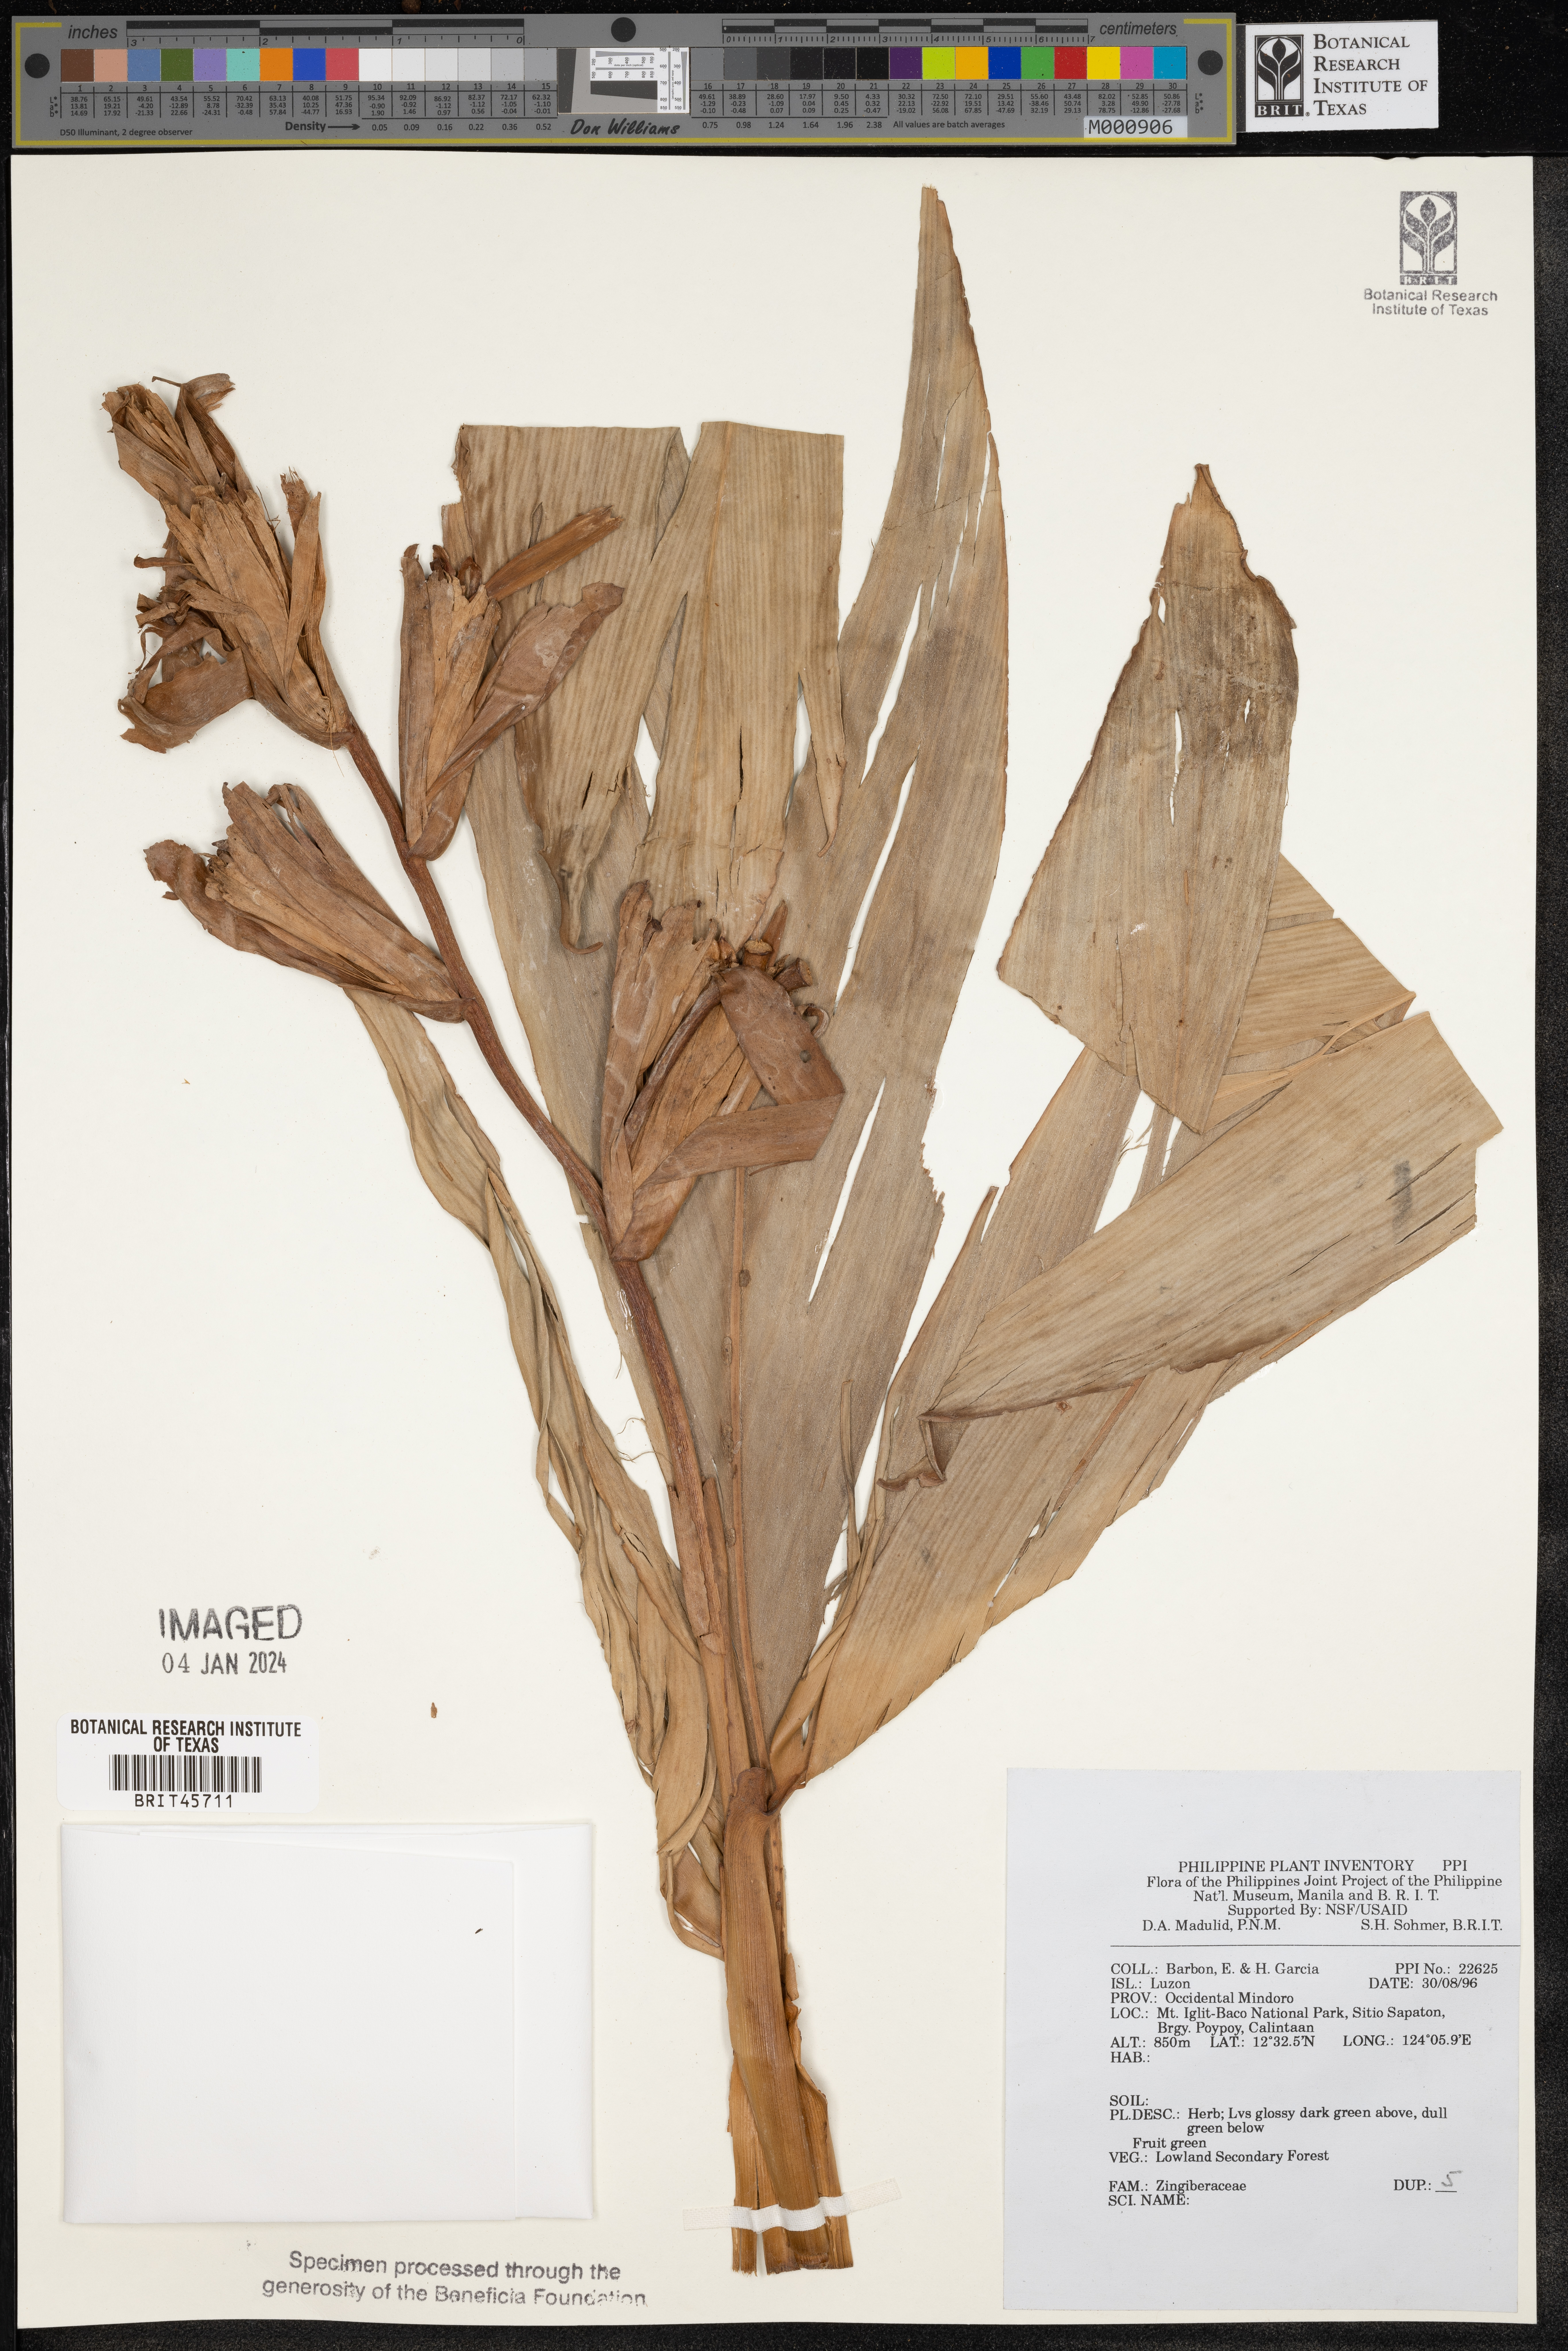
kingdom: Plantae
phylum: Tracheophyta
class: Liliopsida
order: Zingiberales
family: Zingiberaceae
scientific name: Zingiberaceae
